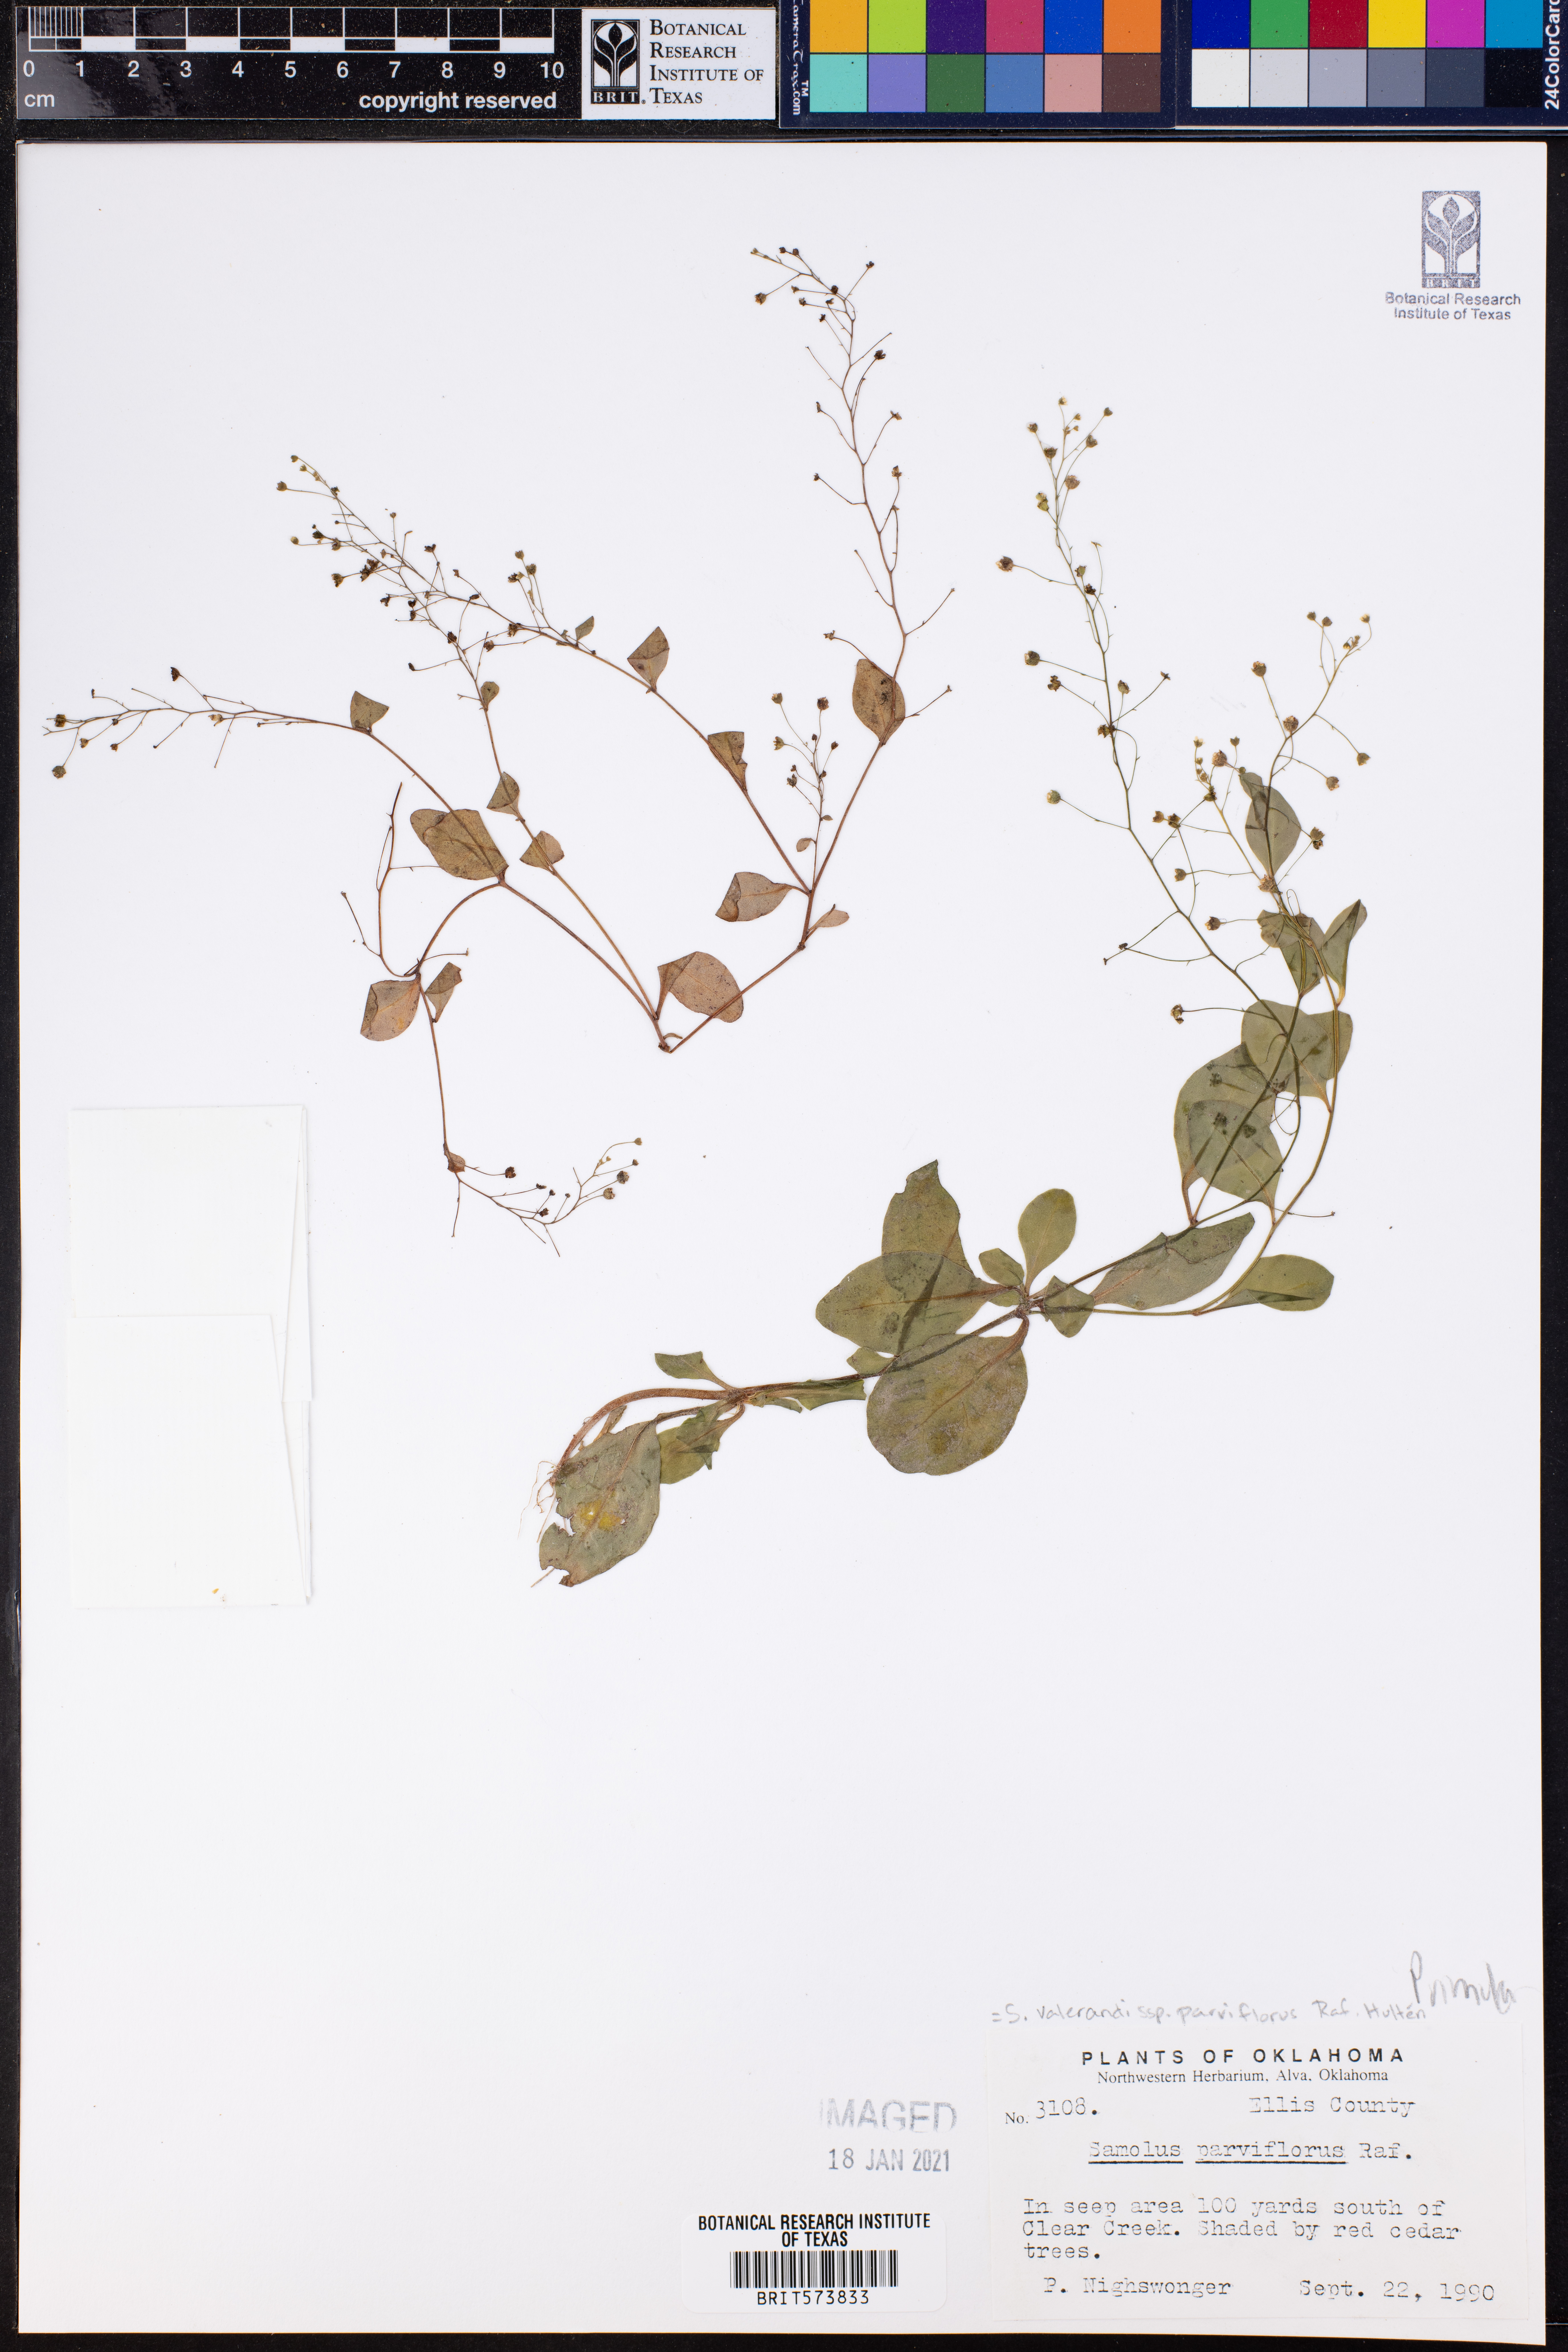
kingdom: Plantae
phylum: Tracheophyta
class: Magnoliopsida
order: Ericales
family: Primulaceae
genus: Samolus
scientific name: Samolus parviflorus
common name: False water pimpernel
